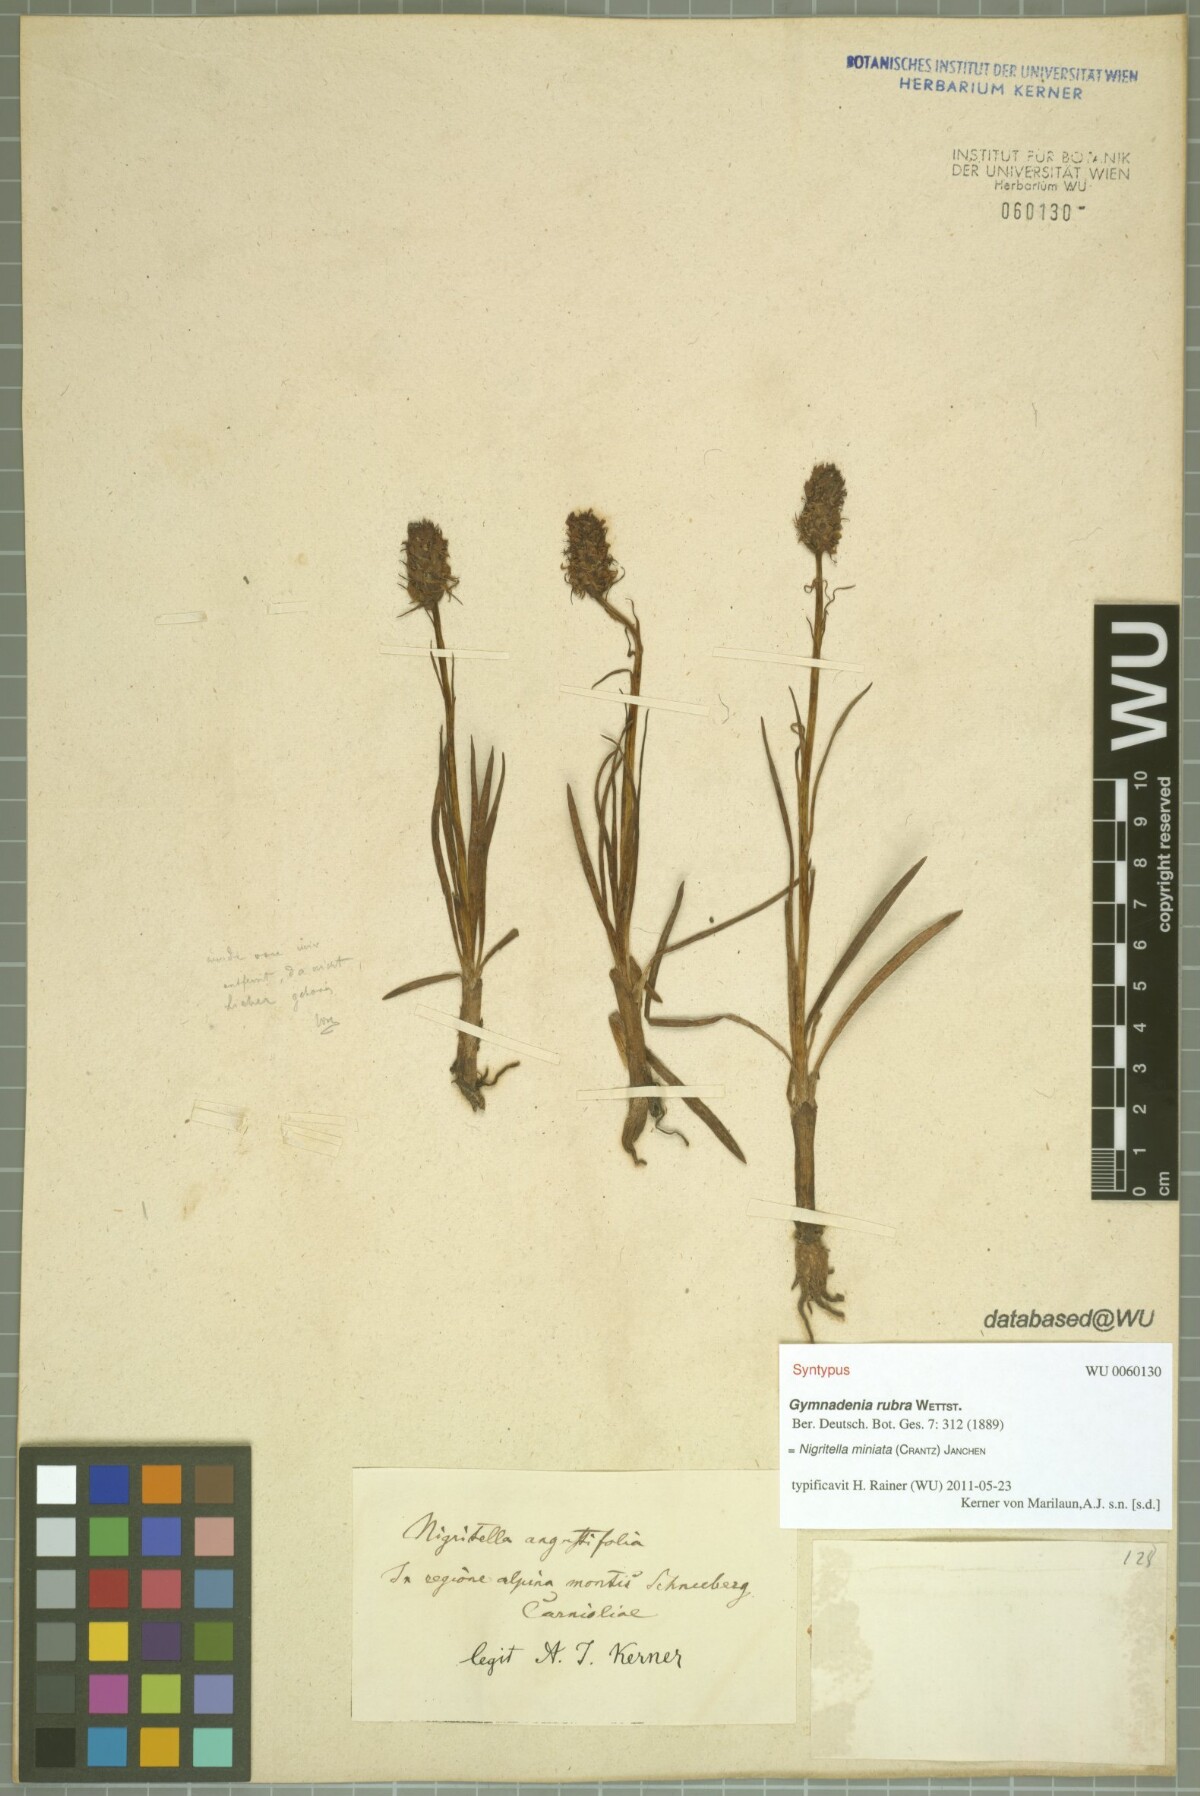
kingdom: Plantae
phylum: Tracheophyta
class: Liliopsida
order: Asparagales
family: Orchidaceae
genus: Gymnadenia
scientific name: Gymnadenia miniata
